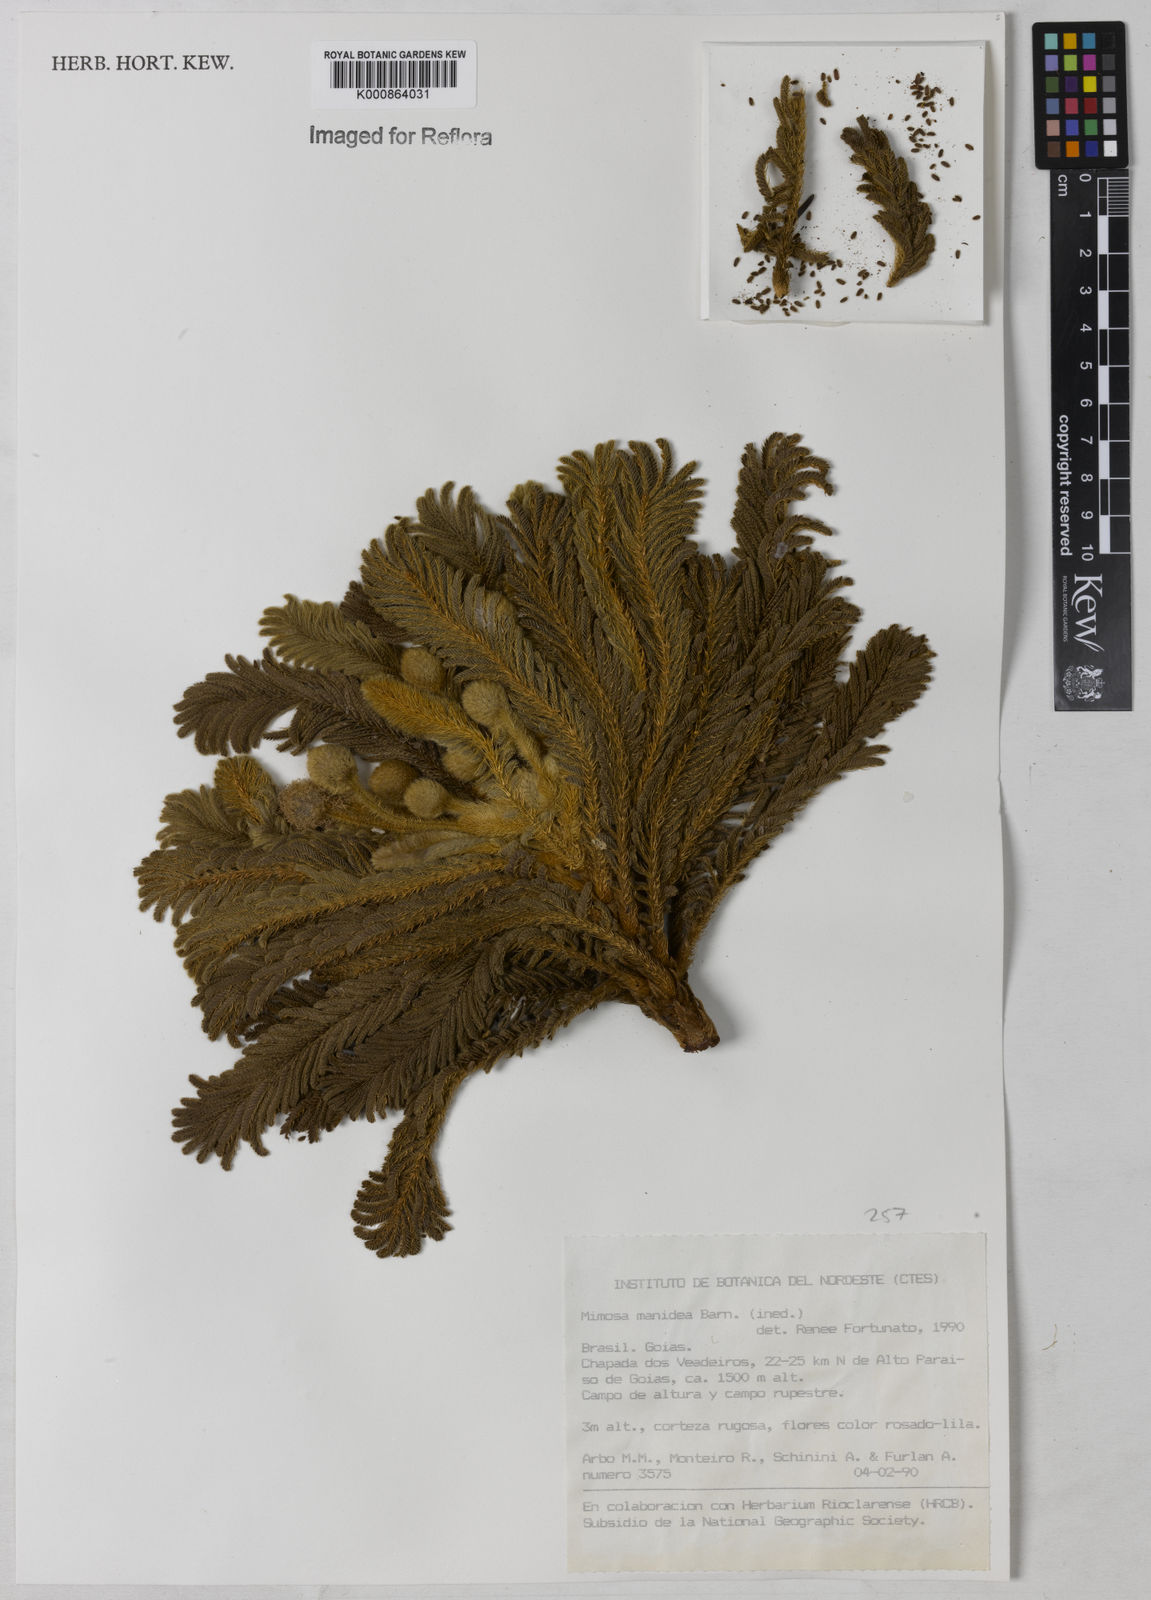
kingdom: Plantae
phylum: Tracheophyta
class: Magnoliopsida
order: Fabales
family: Fabaceae
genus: Mimosa
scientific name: Mimosa manidea
